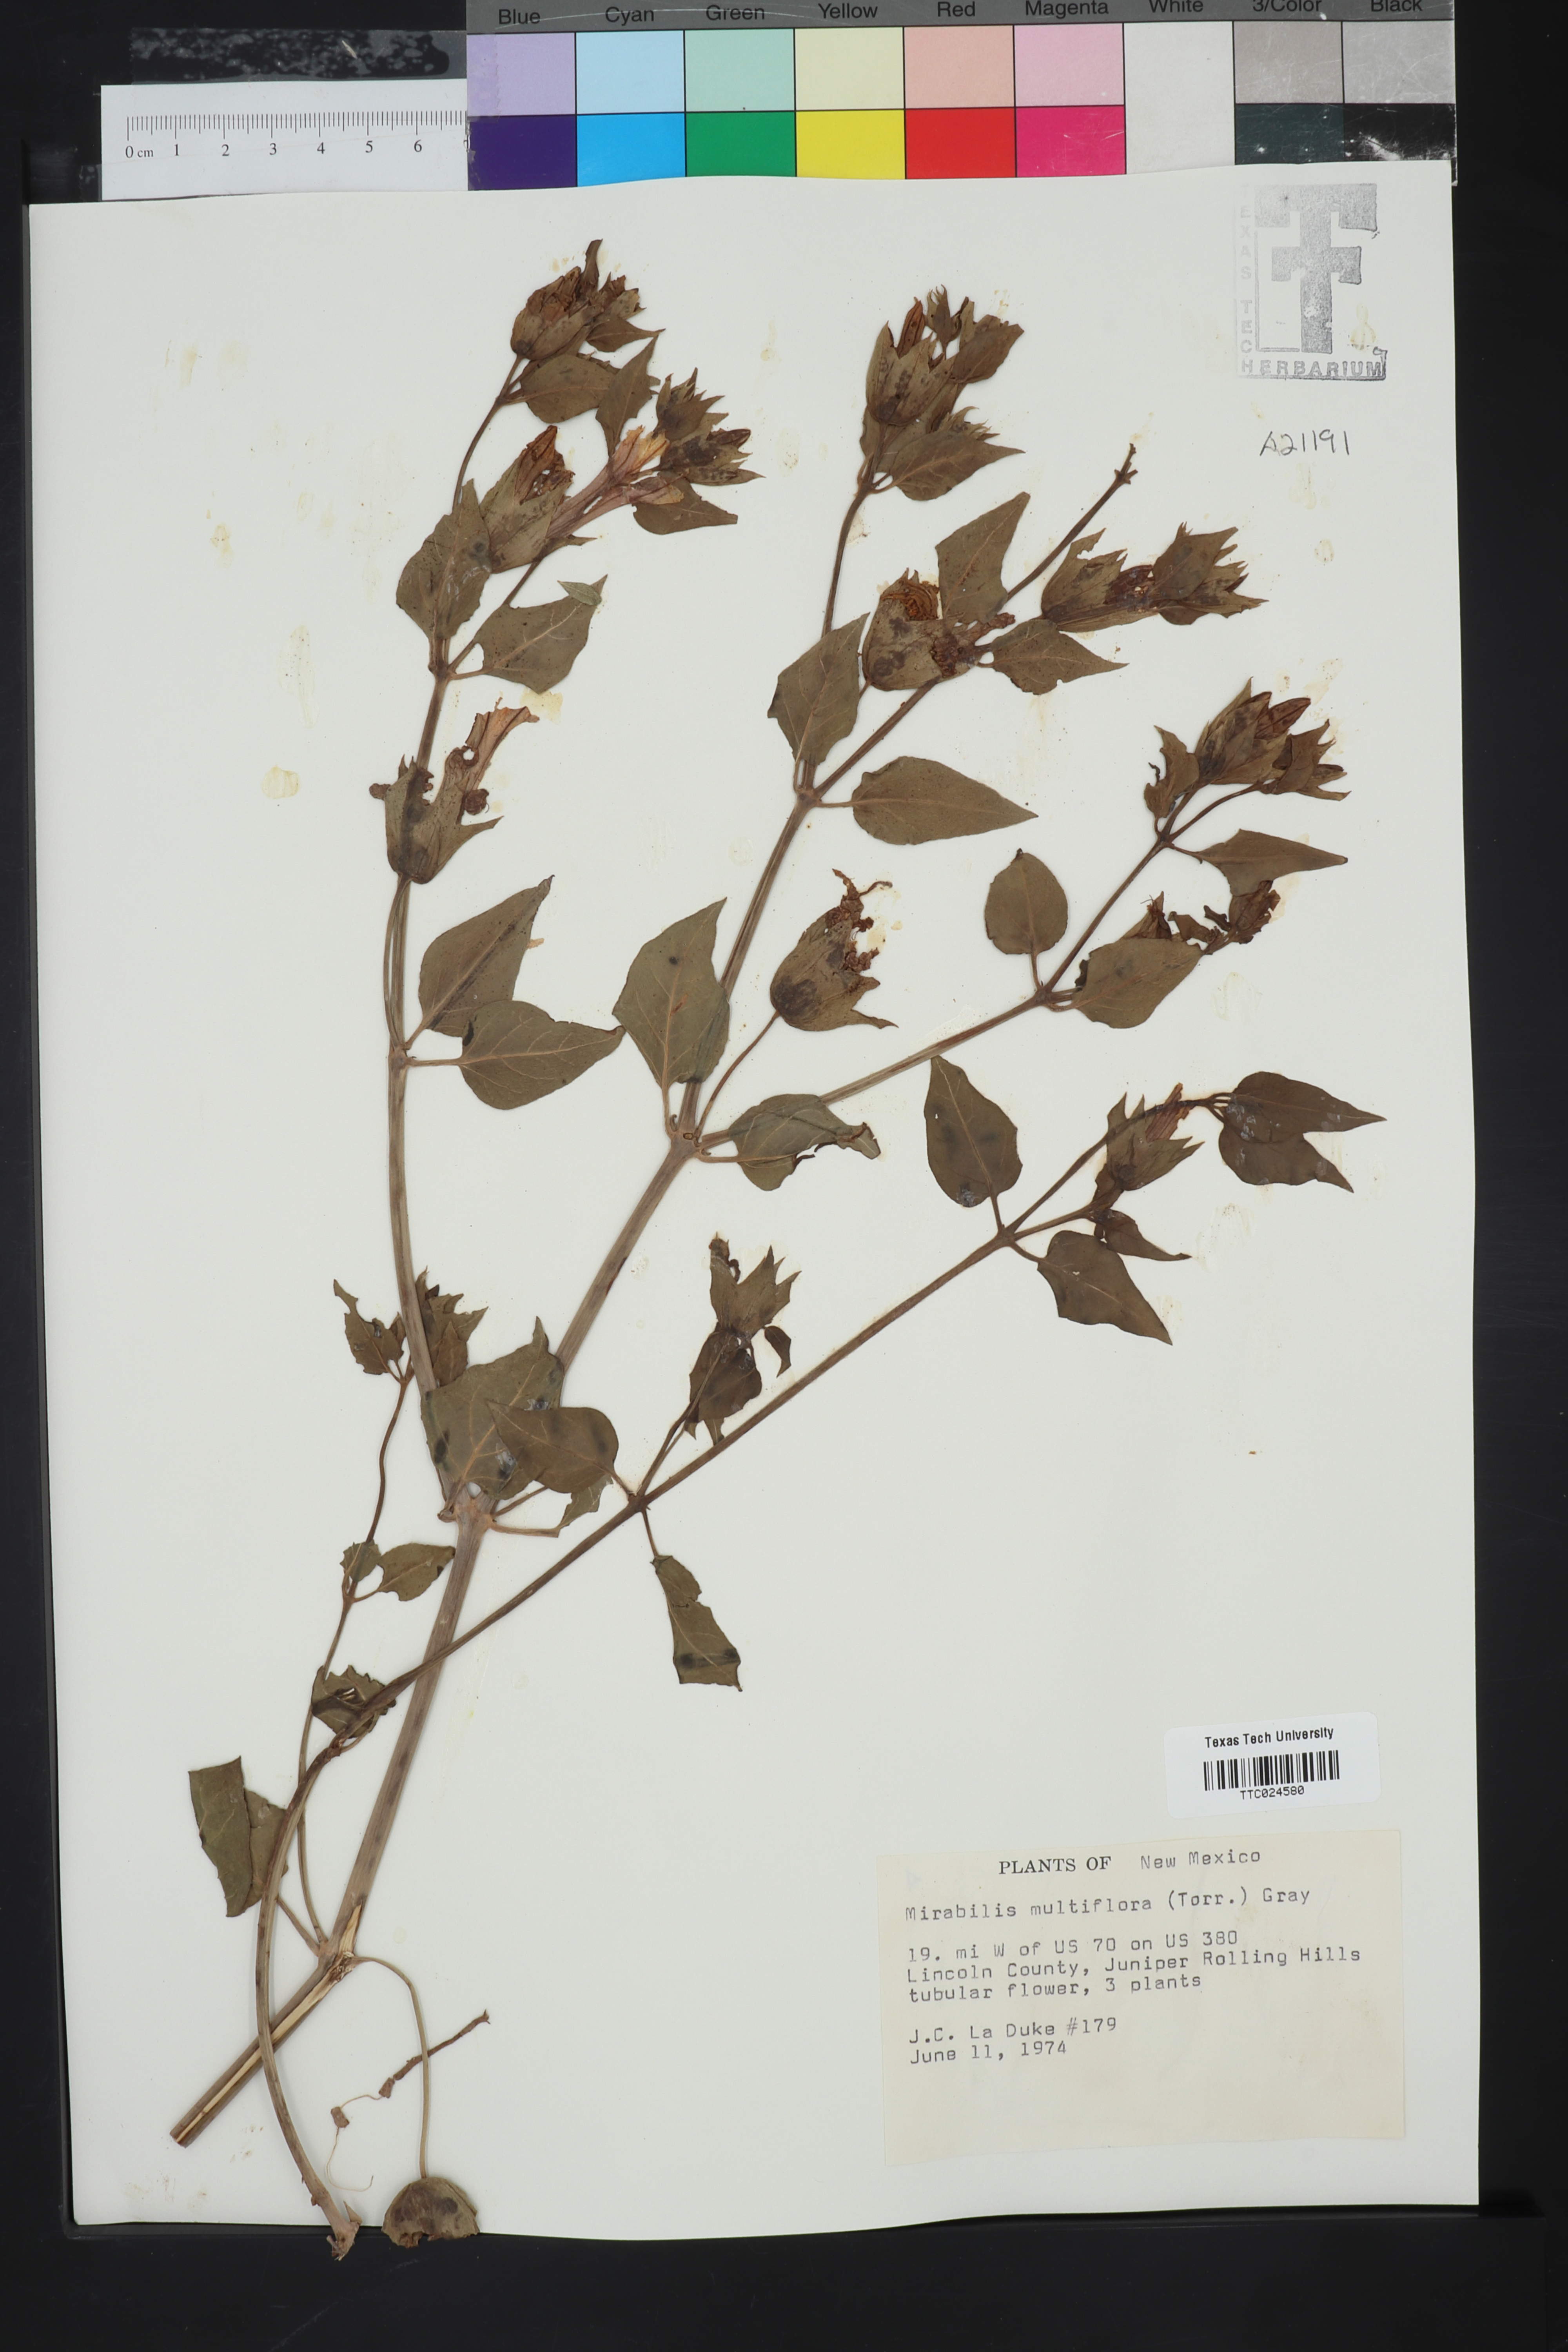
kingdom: Plantae
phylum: Tracheophyta
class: Magnoliopsida
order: Caryophyllales
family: Nyctaginaceae
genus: Mirabilis
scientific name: Mirabilis multiflora
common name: Froebel's four-o'clock
